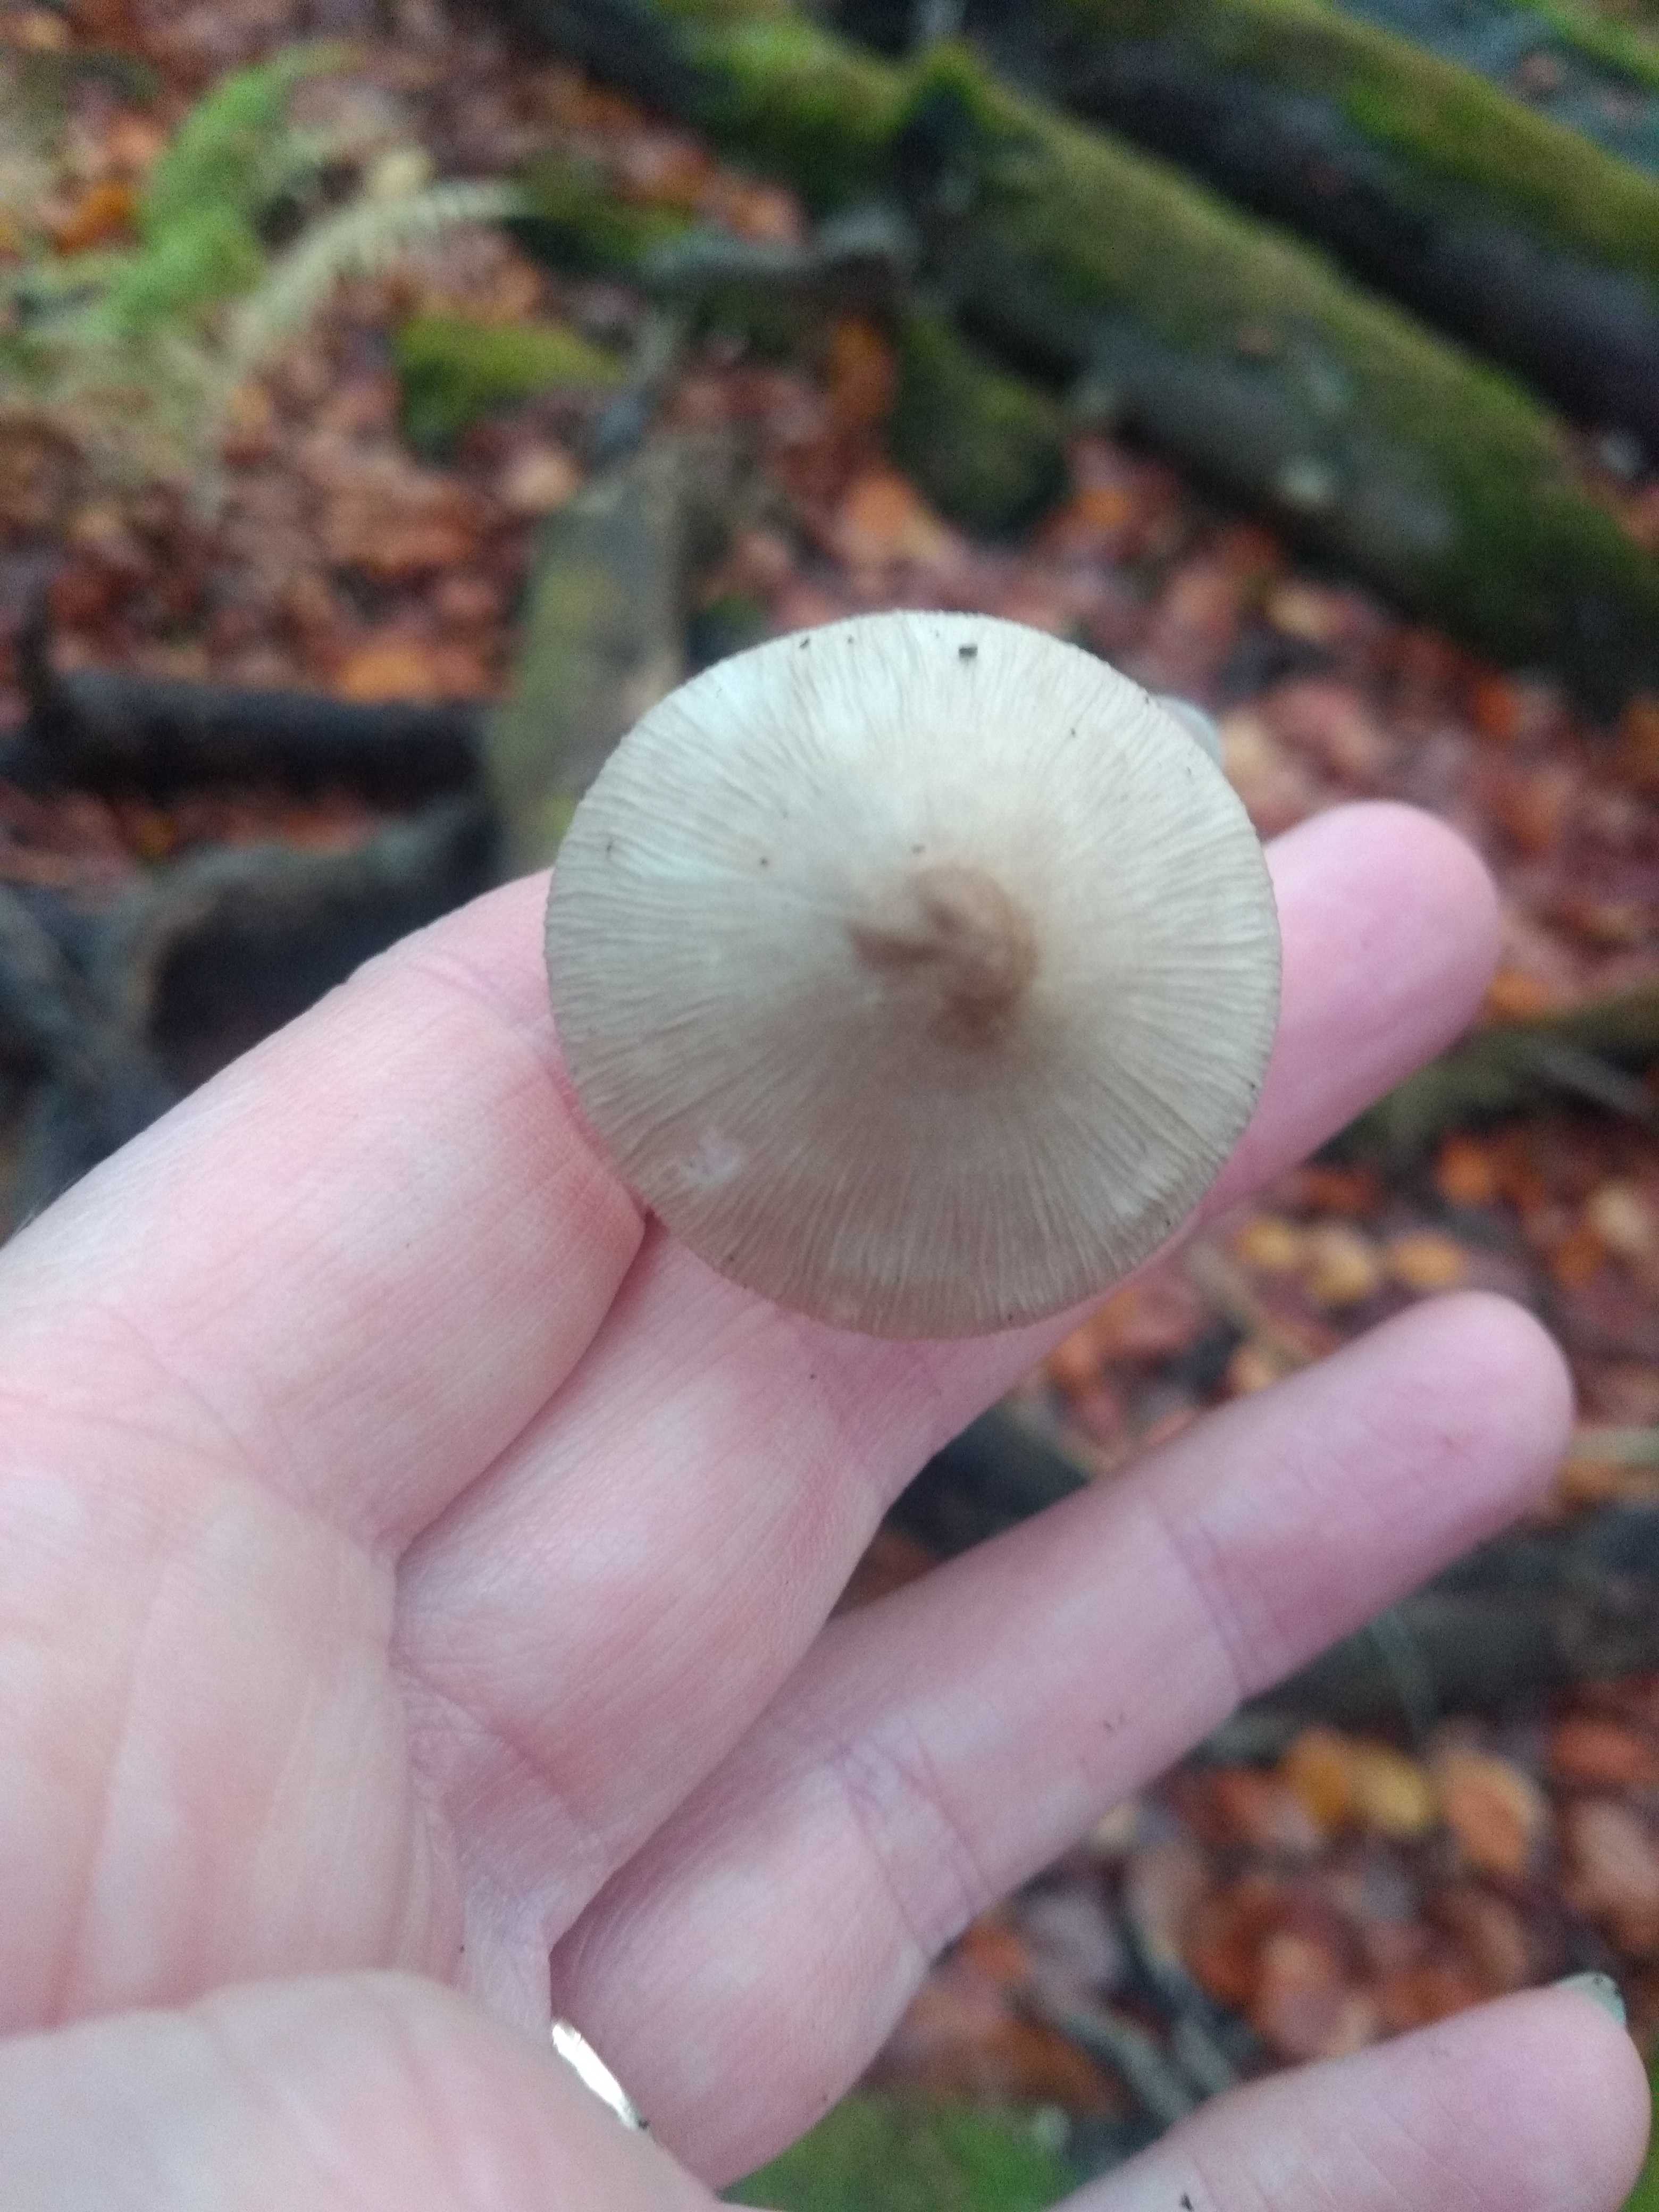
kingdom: Fungi
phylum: Basidiomycota
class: Agaricomycetes
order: Agaricales
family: Mycenaceae
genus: Mycena
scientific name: Mycena galericulata
